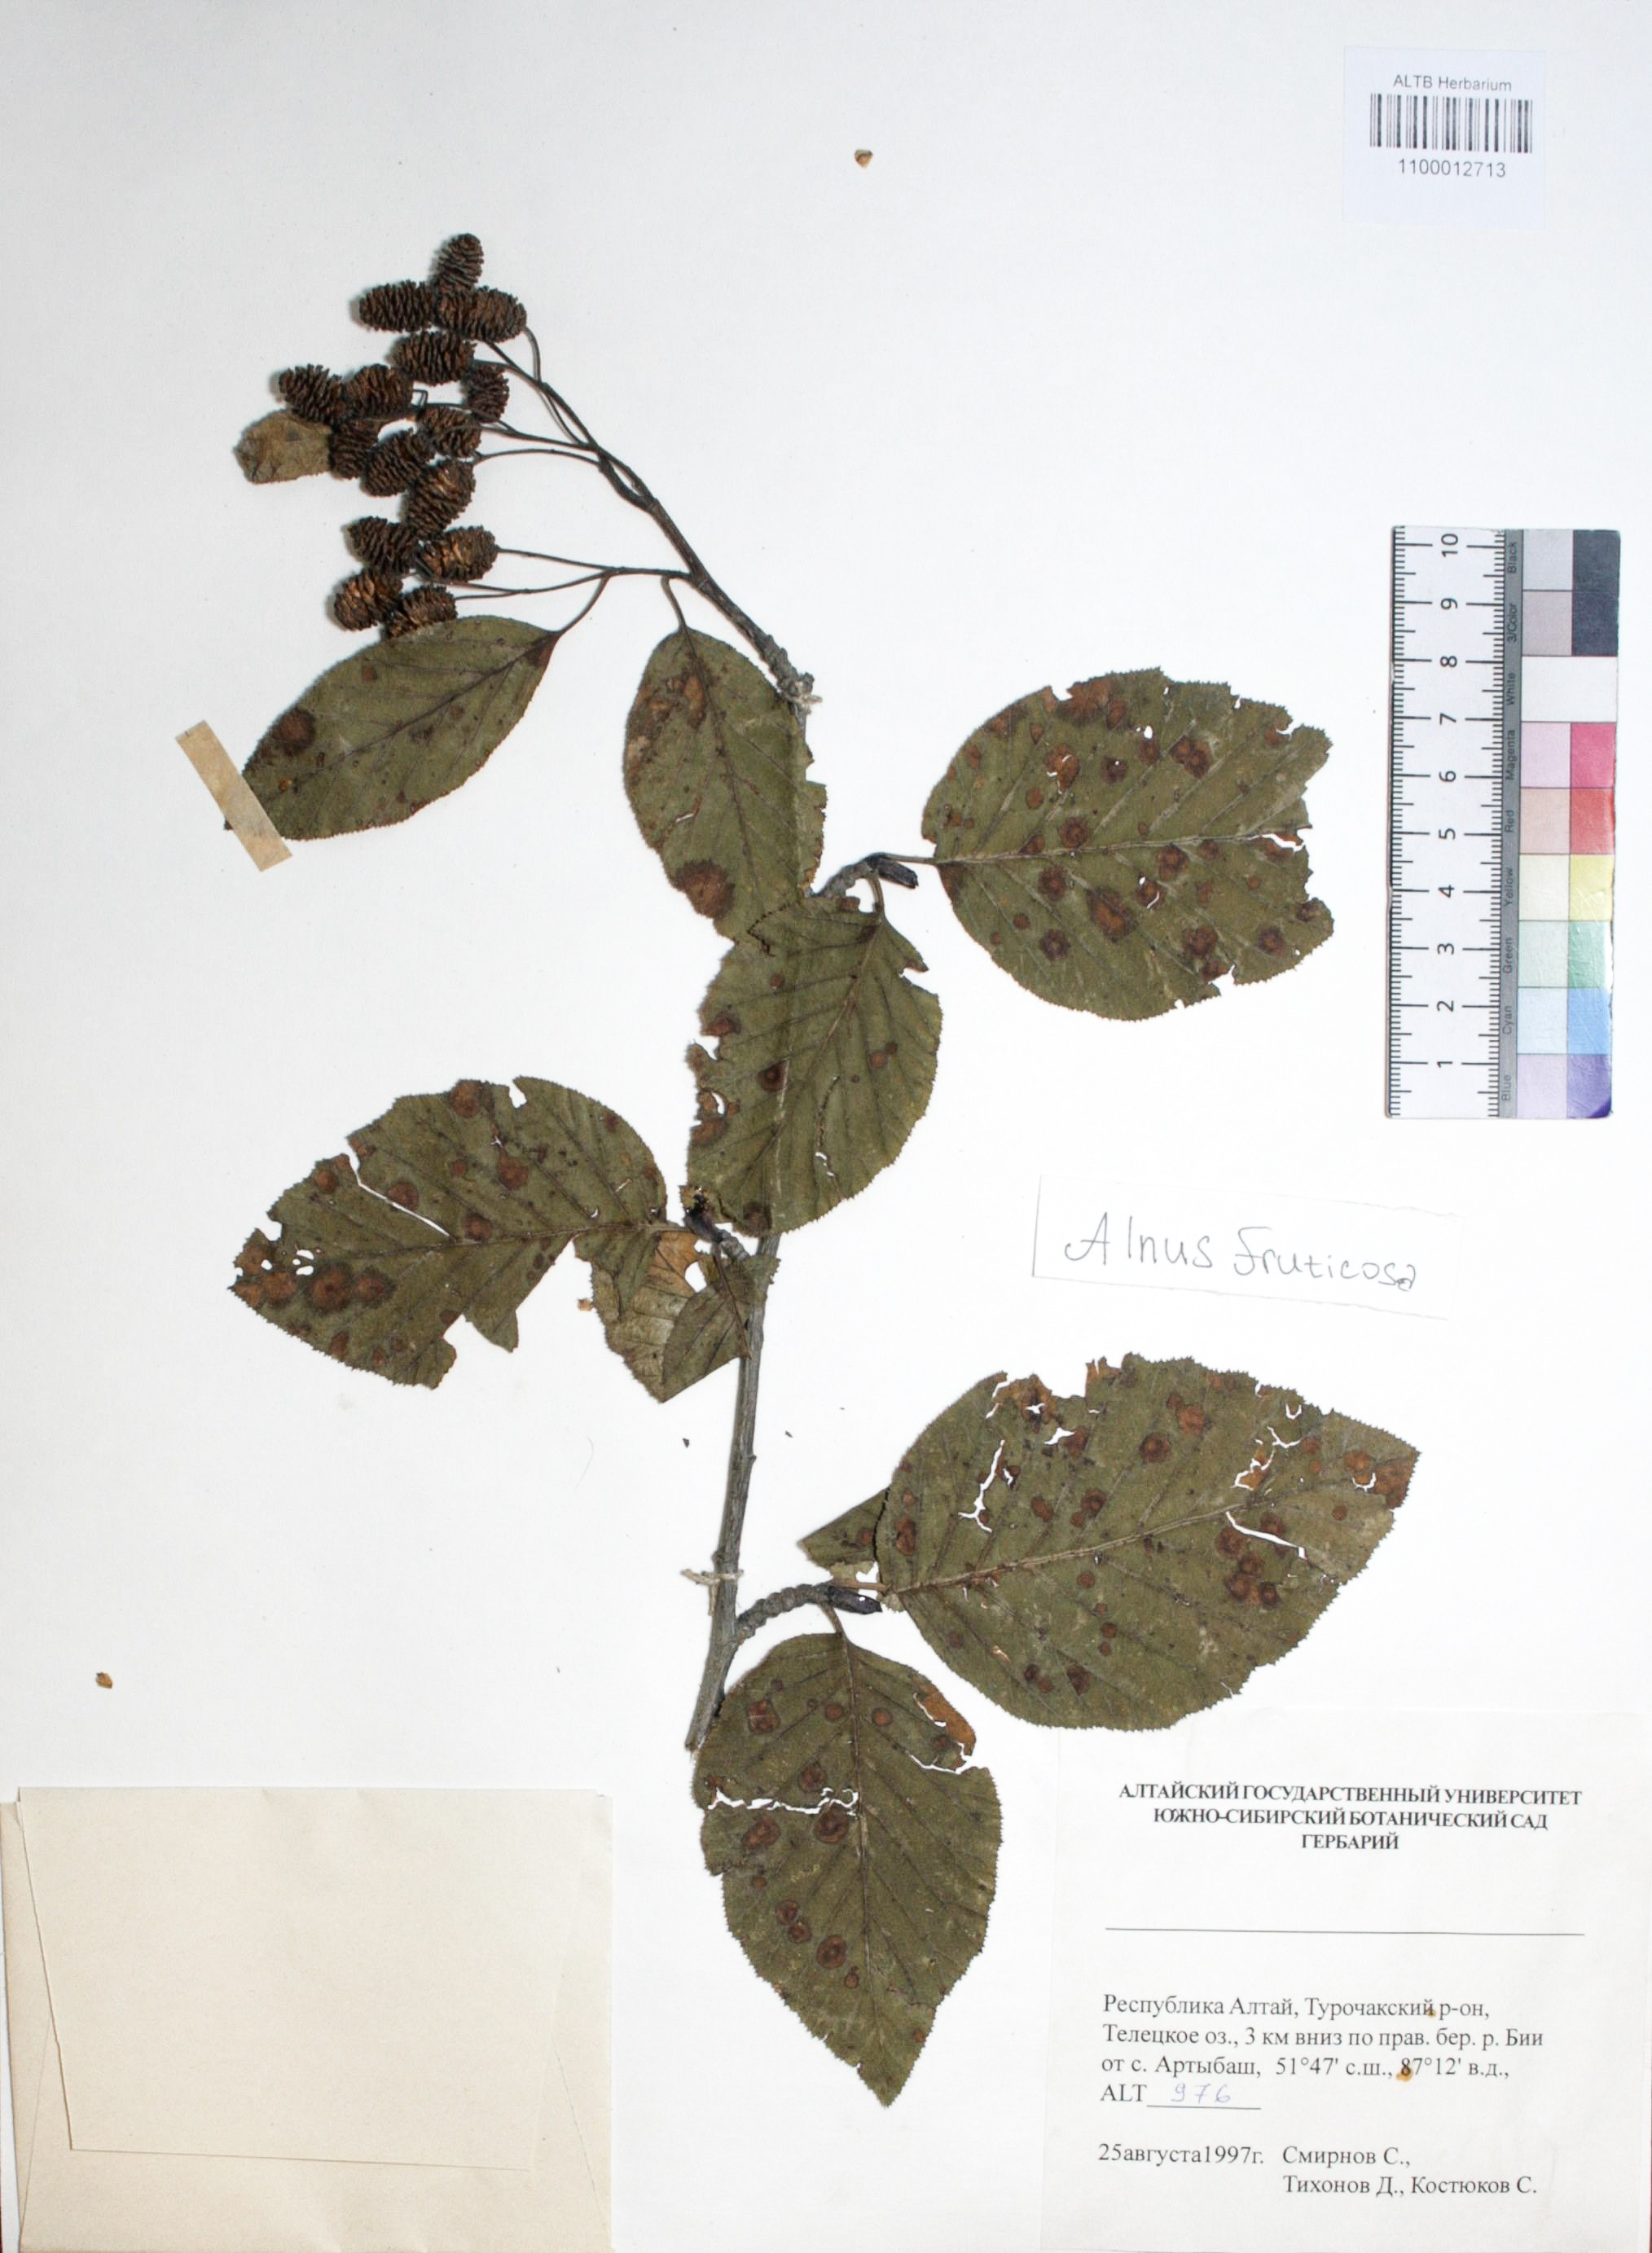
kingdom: Plantae
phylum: Tracheophyta
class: Magnoliopsida
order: Fagales
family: Betulaceae
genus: Alnus
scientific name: Alnus alnobetula
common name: Green alder
